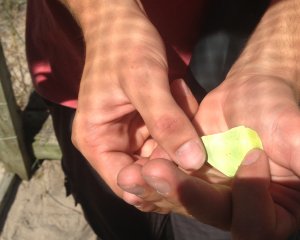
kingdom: Animalia
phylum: Arthropoda
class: Insecta
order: Lepidoptera
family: Pieridae
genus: Phoebis
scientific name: Phoebis sennae
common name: Cloudless Sulphur
